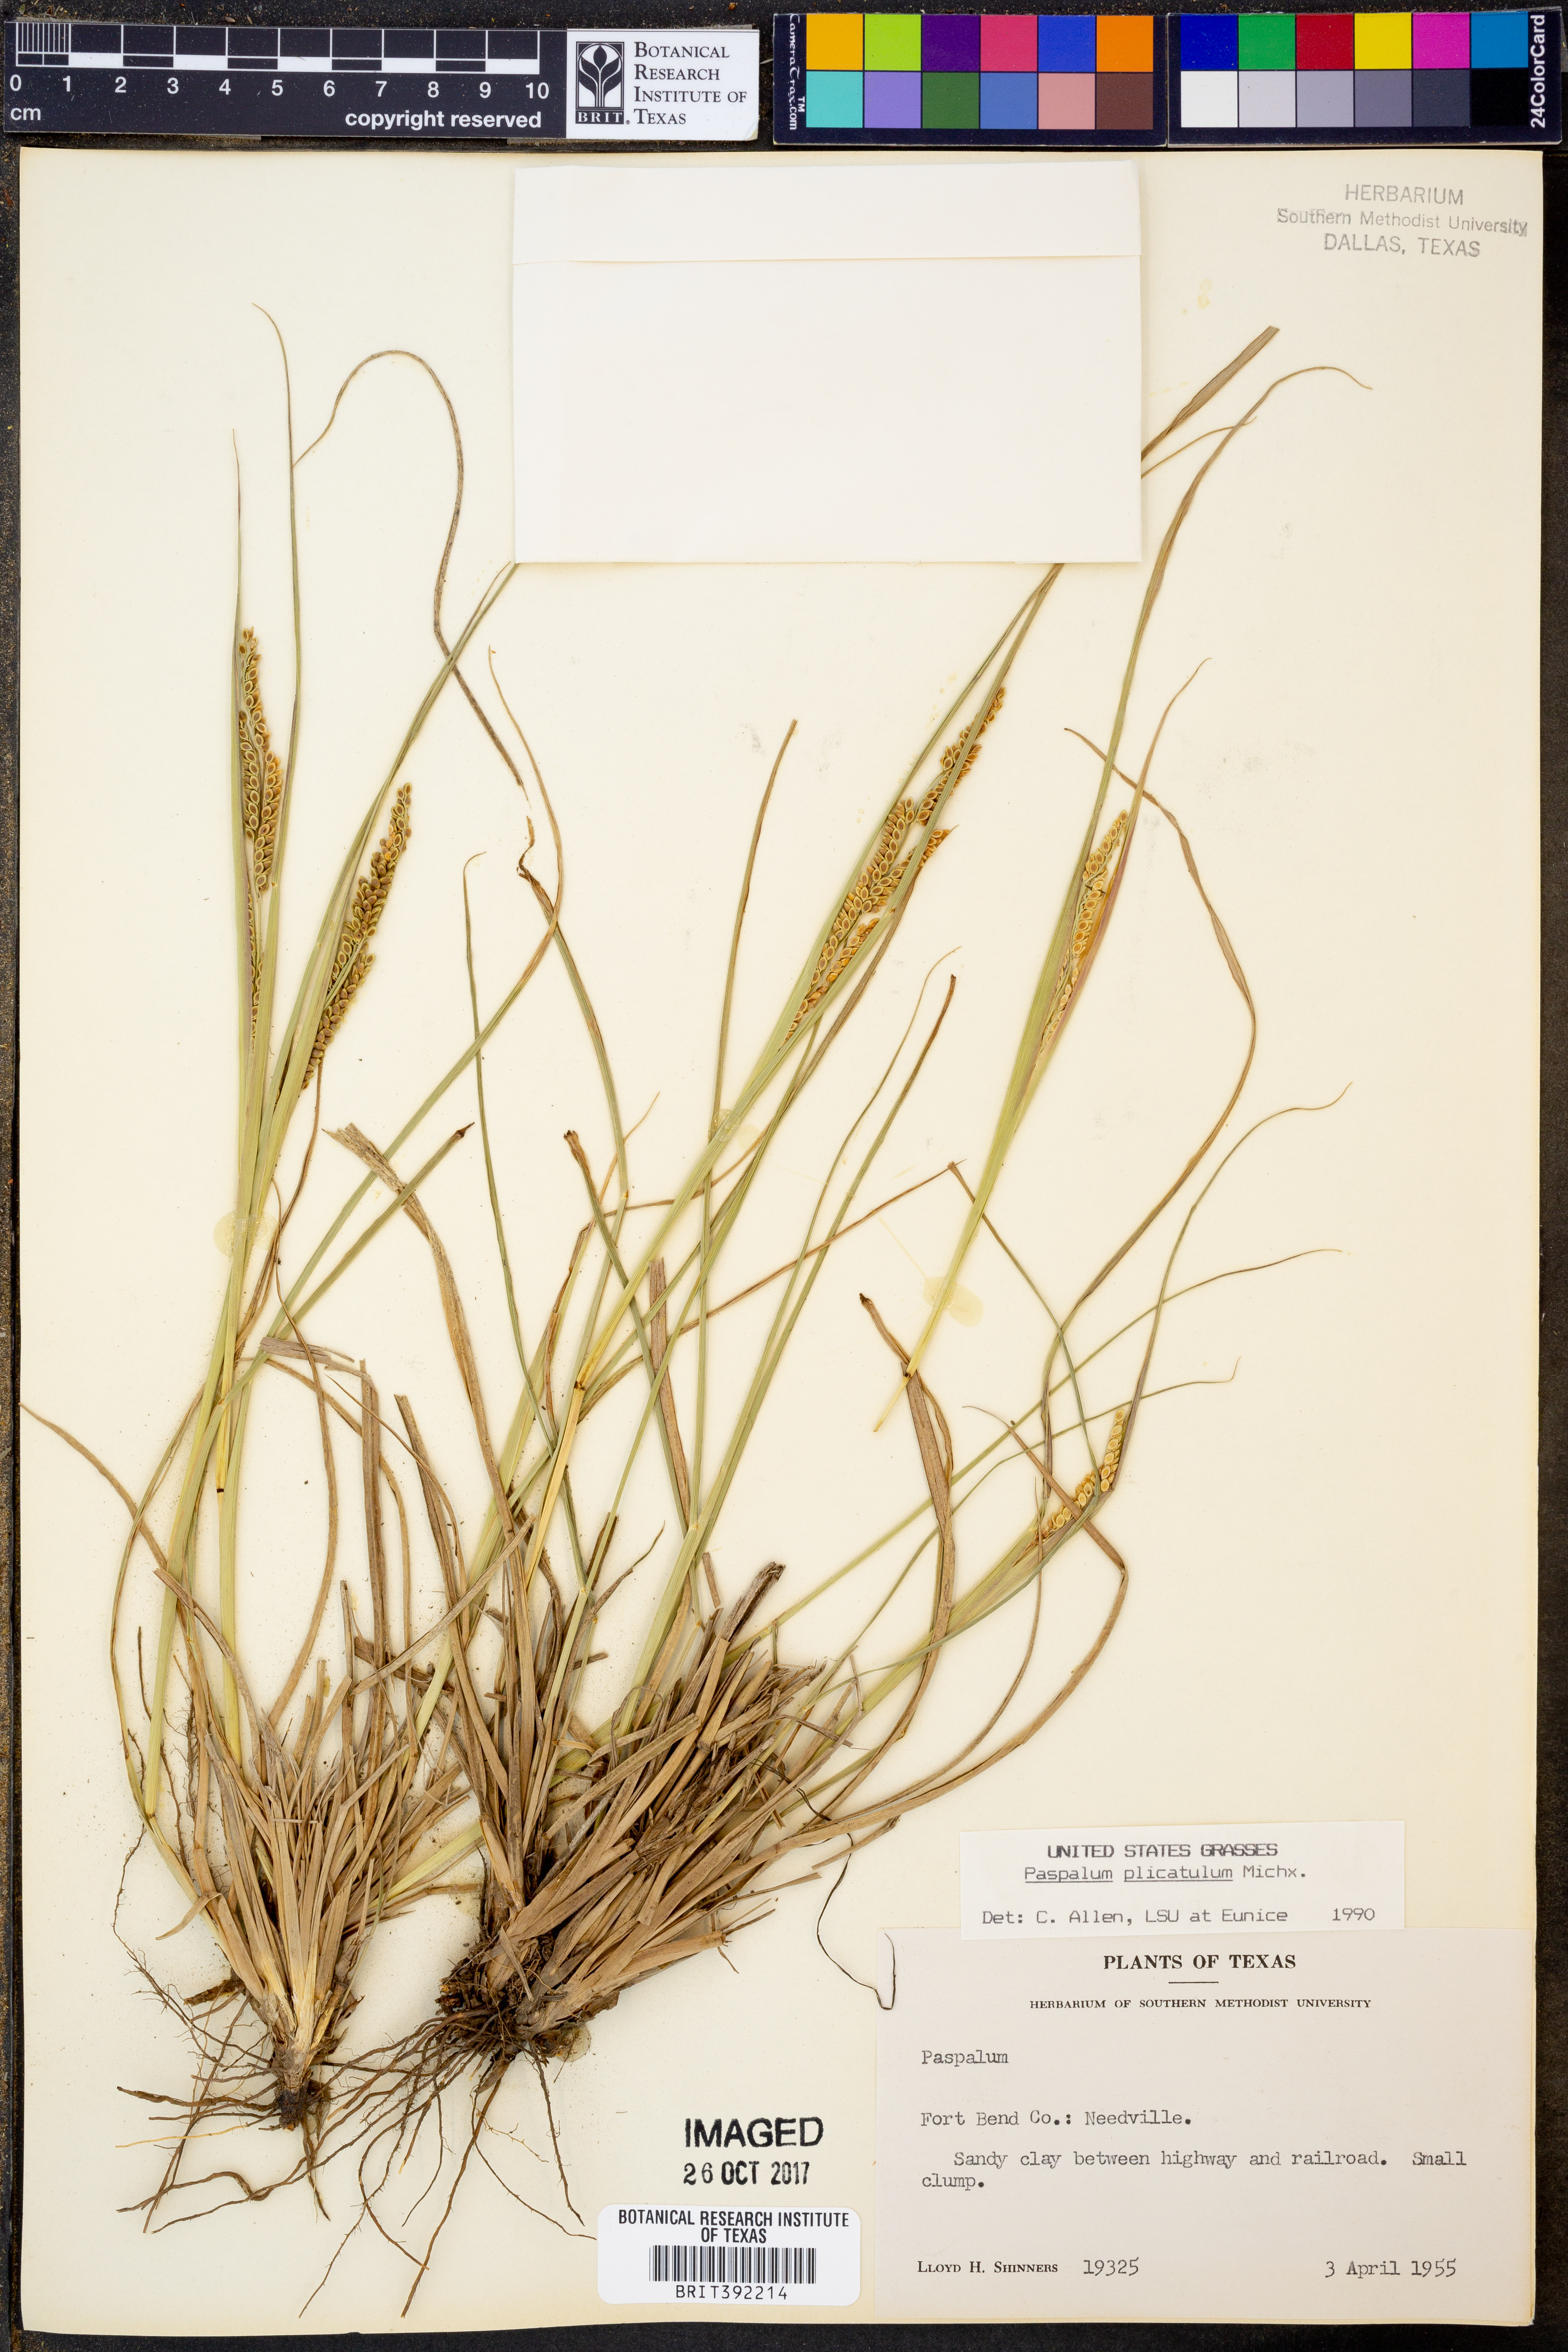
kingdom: Plantae
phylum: Tracheophyta
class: Liliopsida
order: Poales
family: Poaceae
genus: Paspalum
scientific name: Paspalum plicatulum
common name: Top paspalum
